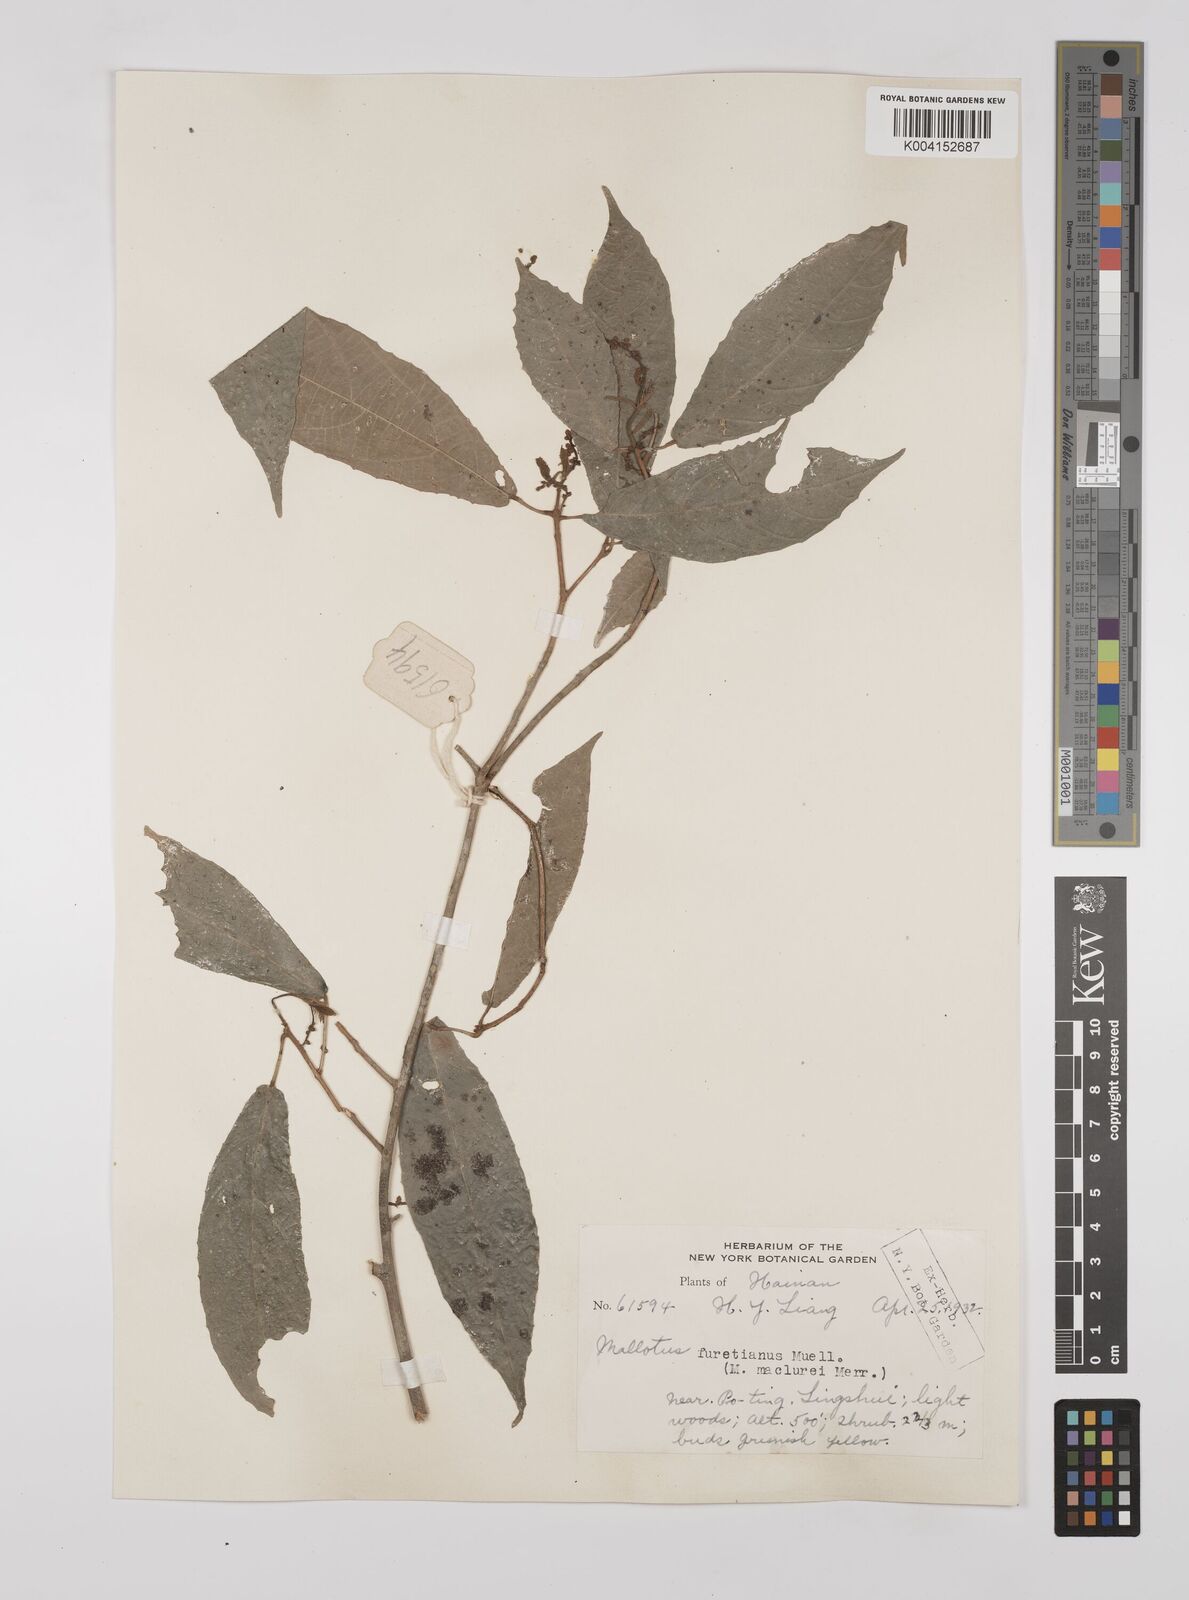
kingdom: Plantae
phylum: Tracheophyta
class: Magnoliopsida
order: Malpighiales
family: Euphorbiaceae
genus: Mallotus
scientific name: Mallotus peltatus
